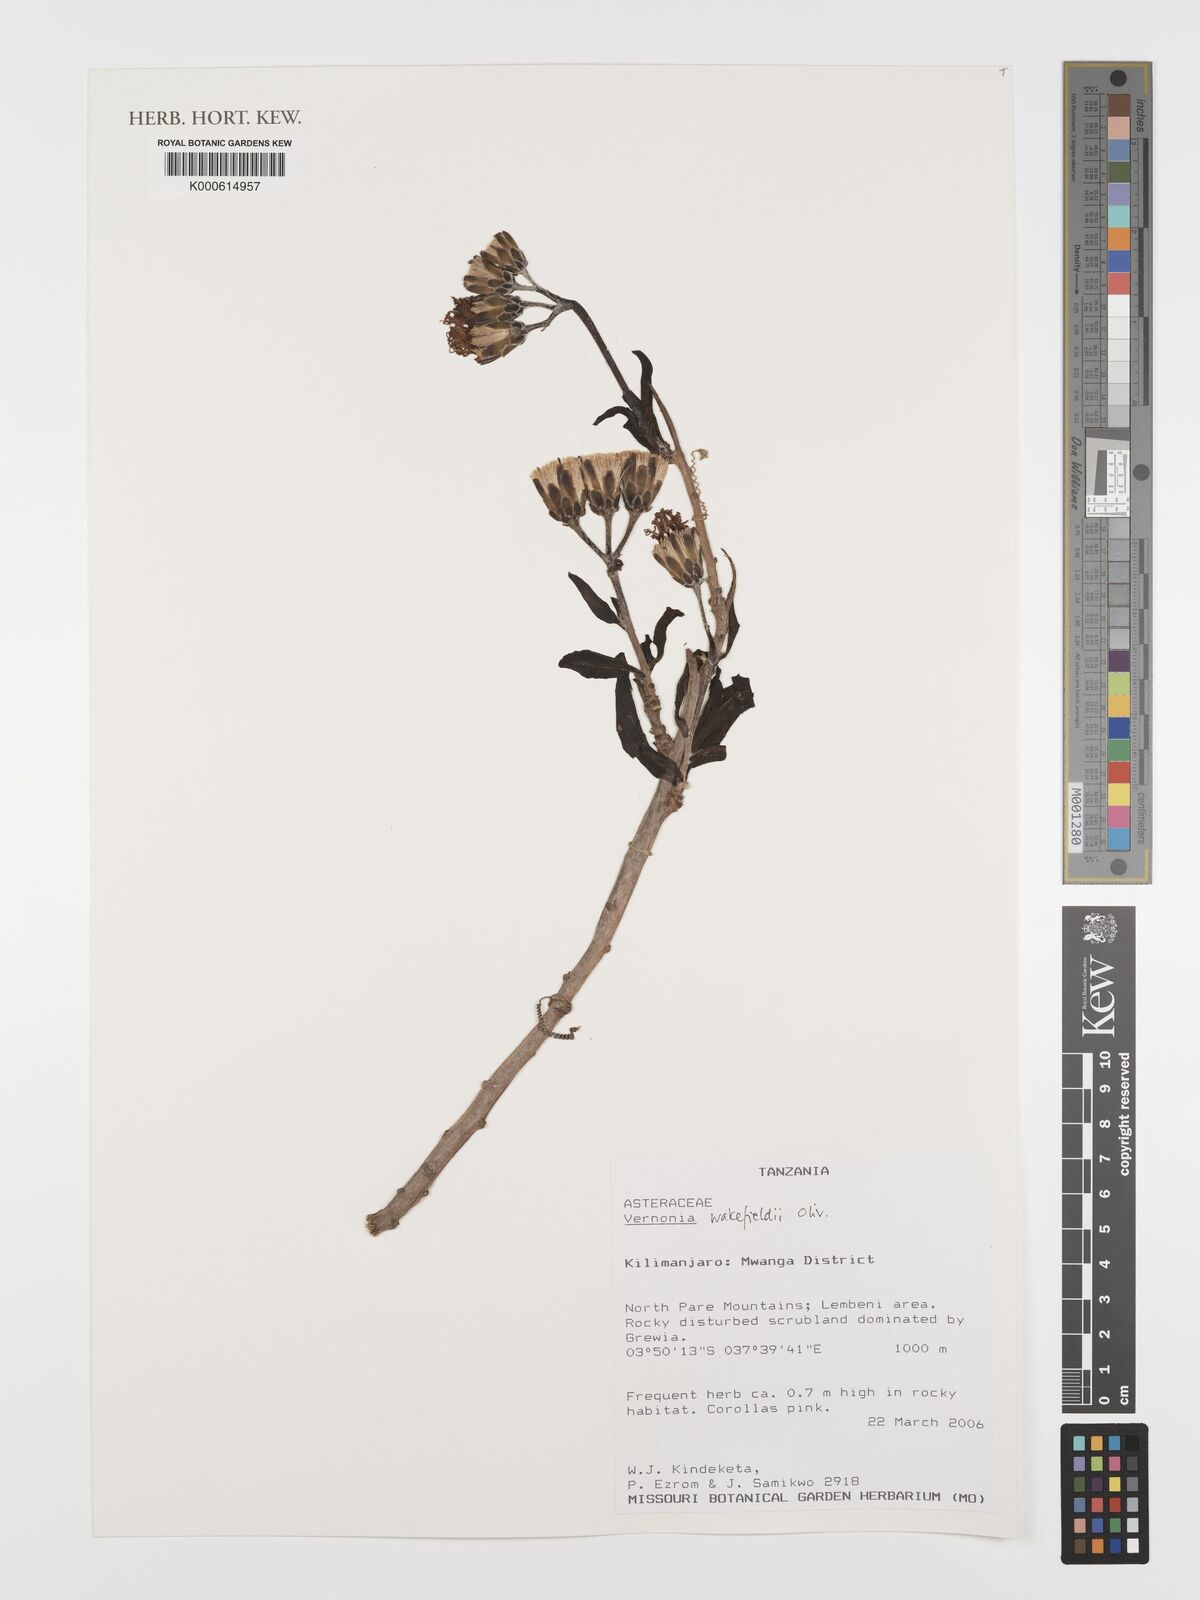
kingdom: Plantae
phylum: Tracheophyta
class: Magnoliopsida
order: Asterales
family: Asteraceae
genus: Vernonia
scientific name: Vernonia wakefieldii
